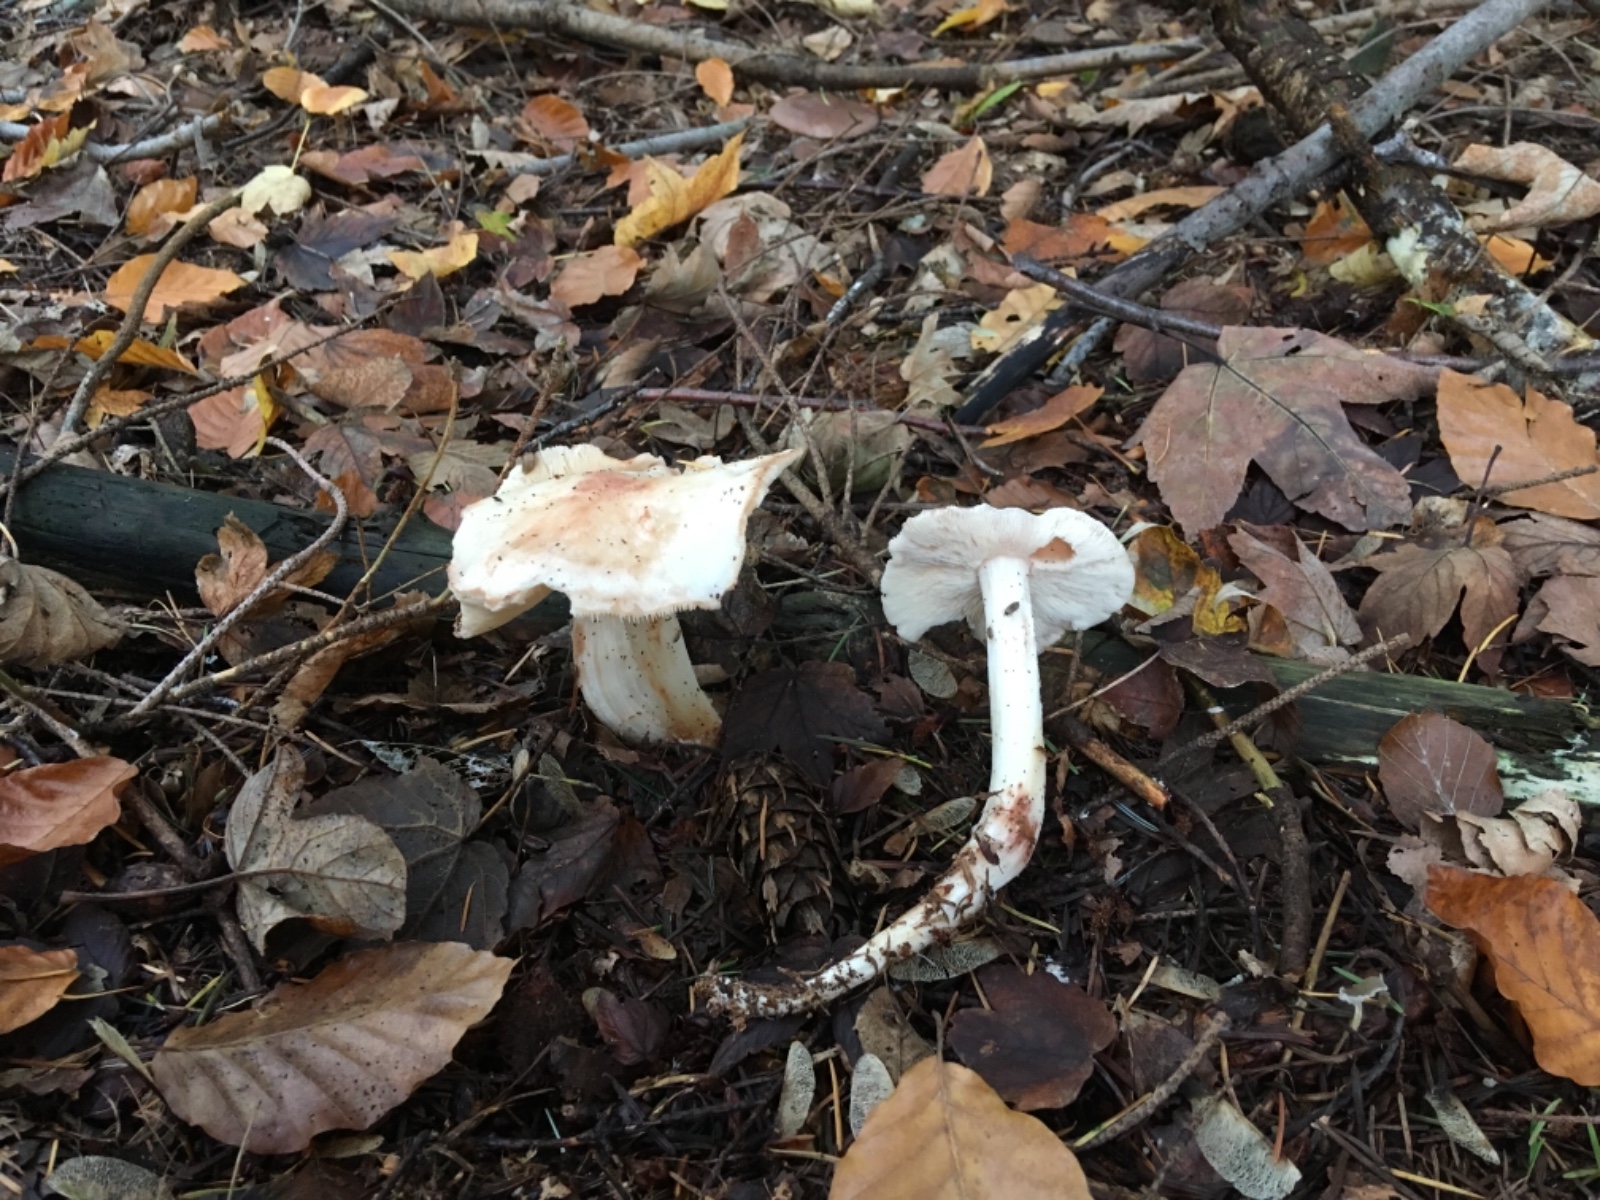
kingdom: Fungi
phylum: Basidiomycota
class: Agaricomycetes
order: Agaricales
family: Omphalotaceae
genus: Rhodocollybia
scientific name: Rhodocollybia maculata
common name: plettet fladhat
